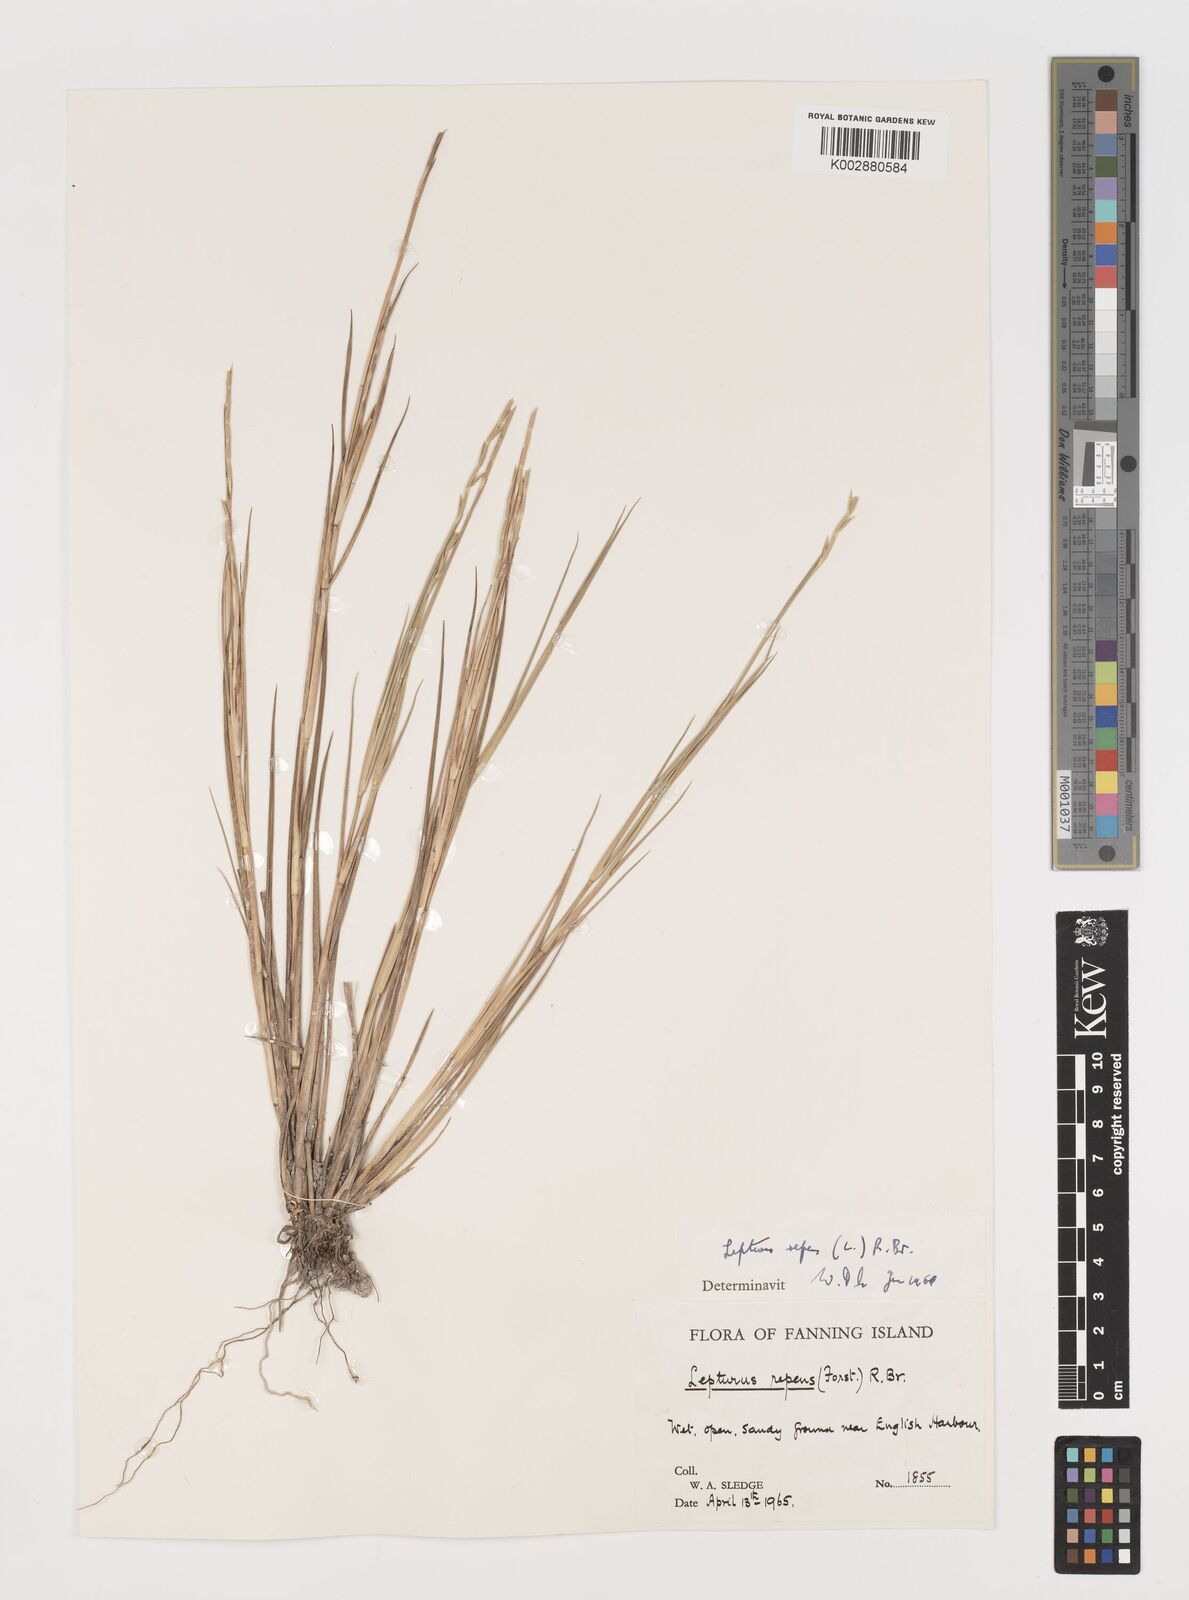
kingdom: Plantae
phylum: Tracheophyta
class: Liliopsida
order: Poales
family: Poaceae
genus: Lepturus
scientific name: Lepturus repens
